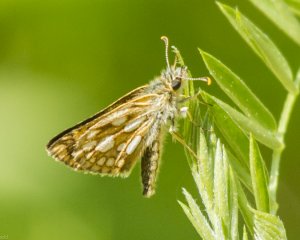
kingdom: Animalia
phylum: Arthropoda
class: Insecta
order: Lepidoptera
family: Hesperiidae
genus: Carterocephalus
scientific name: Carterocephalus palaemon
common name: Chequered Skipper
